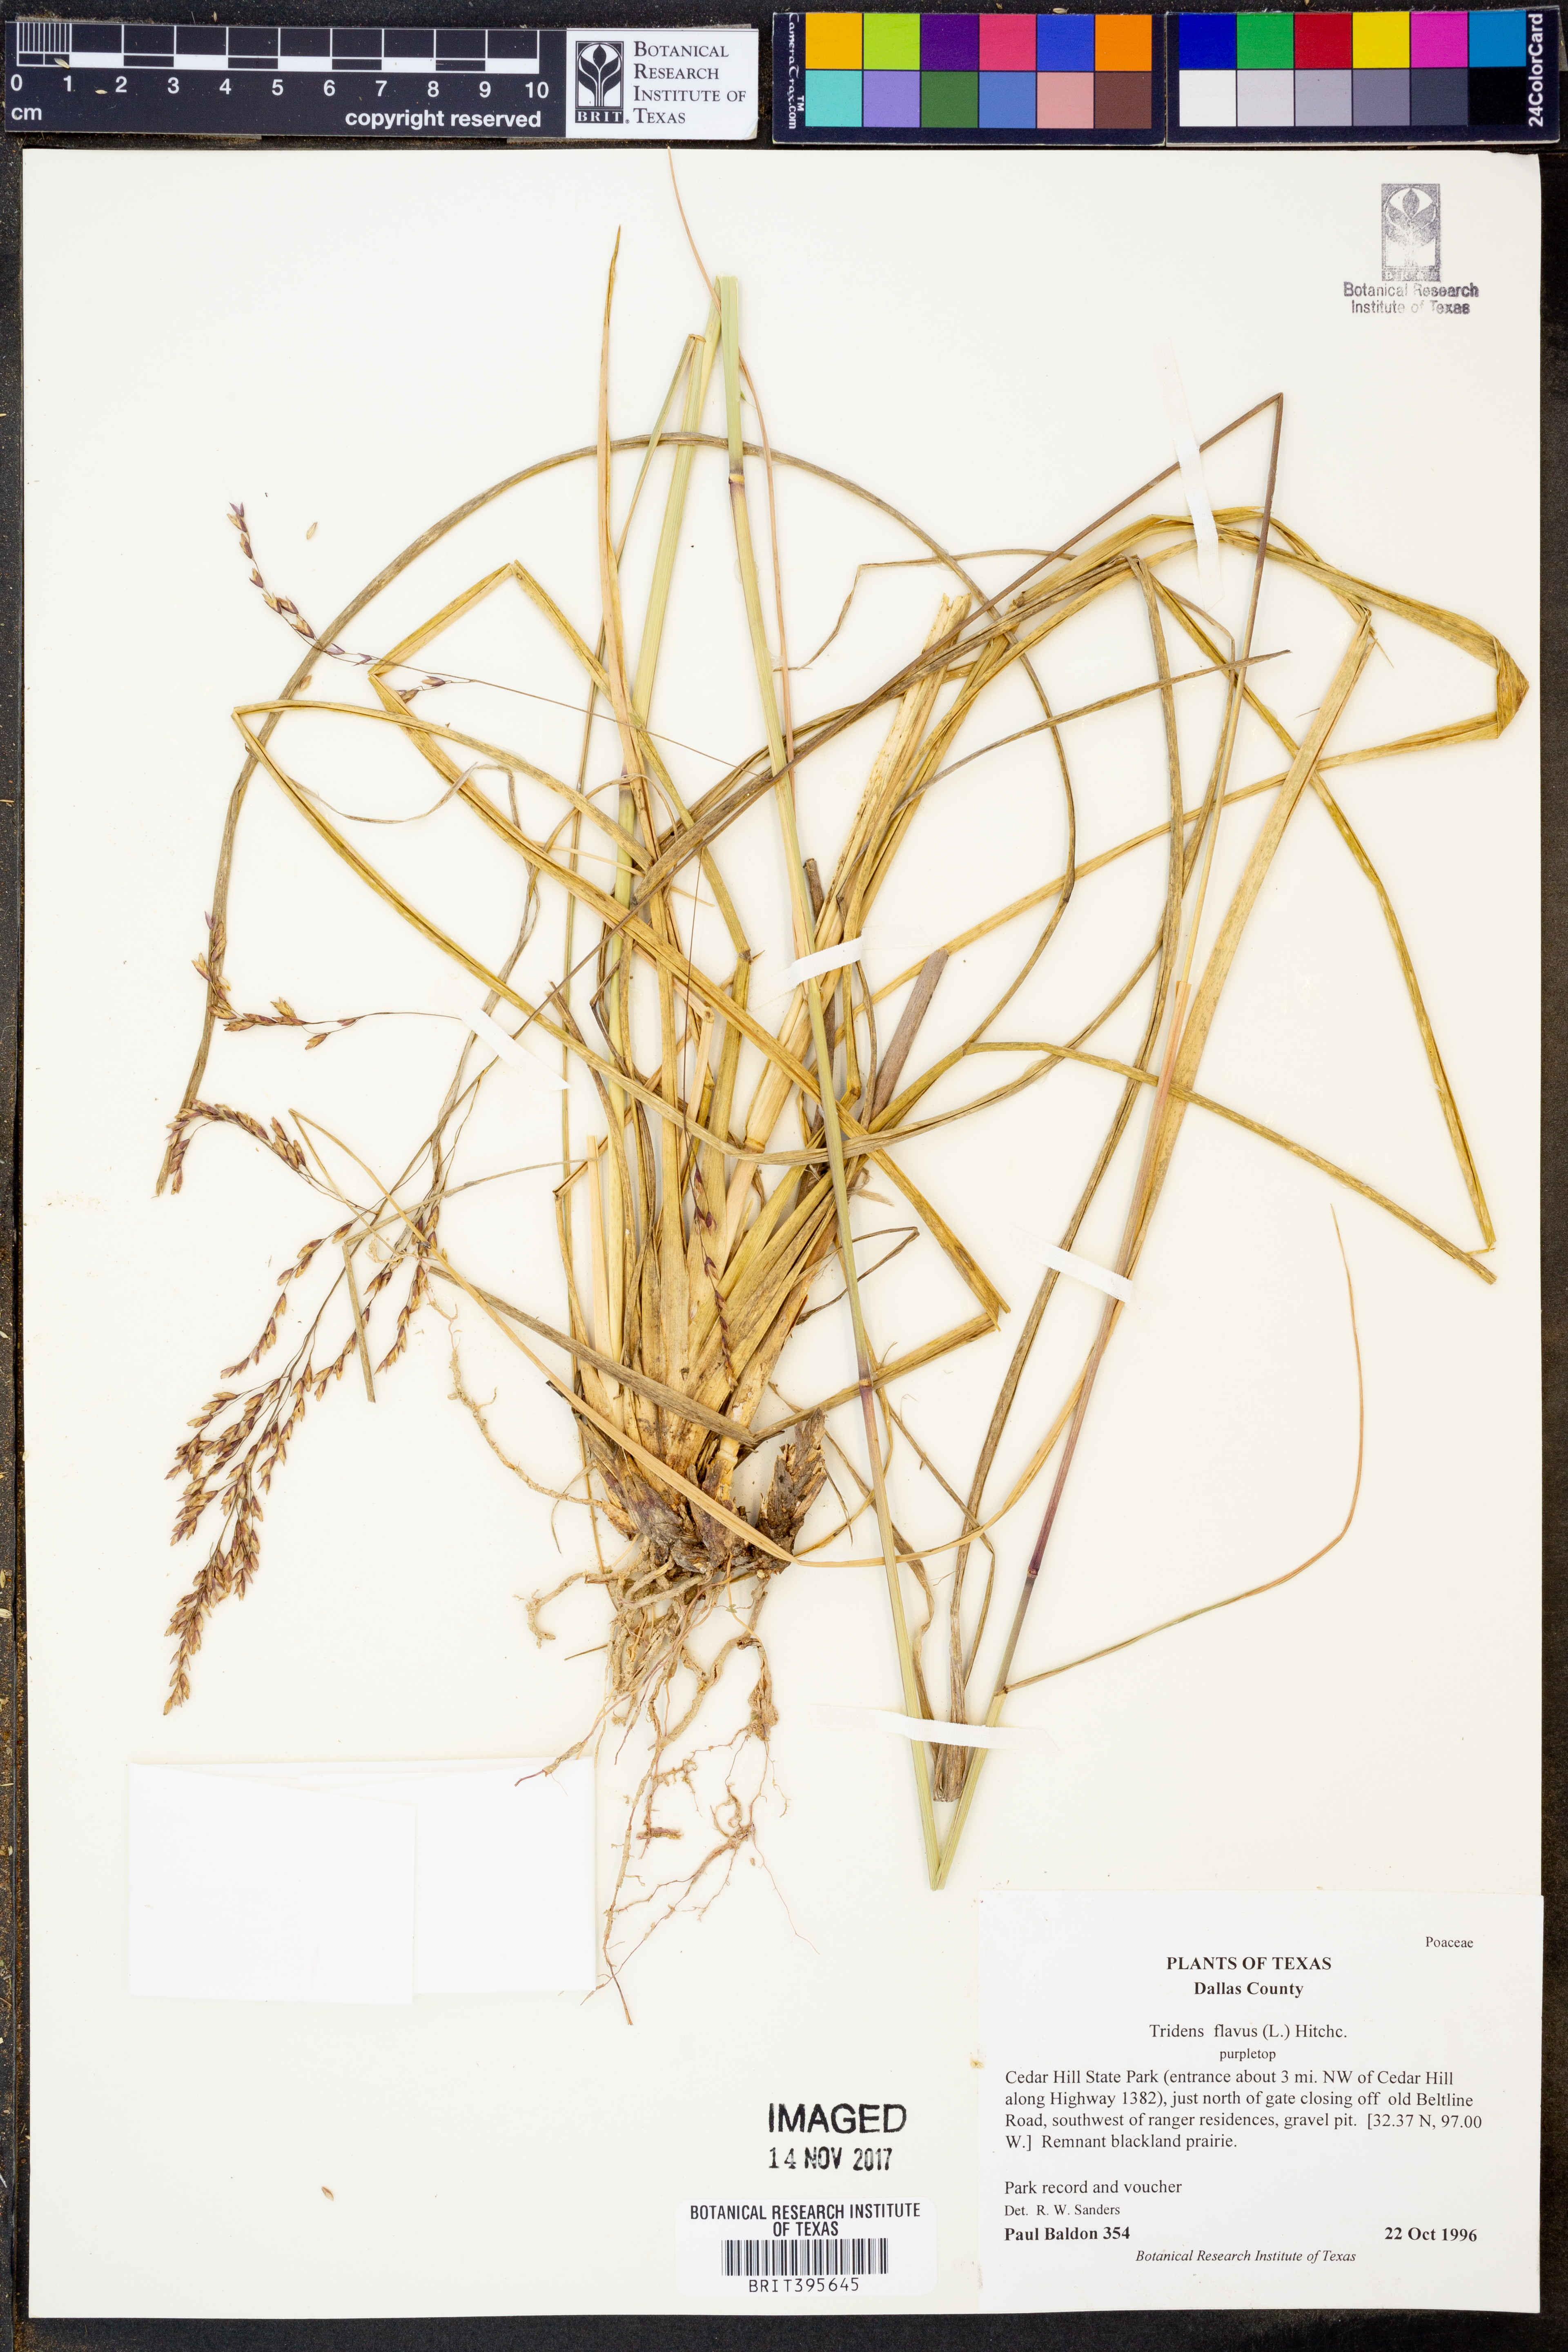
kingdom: Plantae
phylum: Tracheophyta
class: Liliopsida
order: Poales
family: Poaceae
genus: Tridens
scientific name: Tridens flavus
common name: Purpletop
